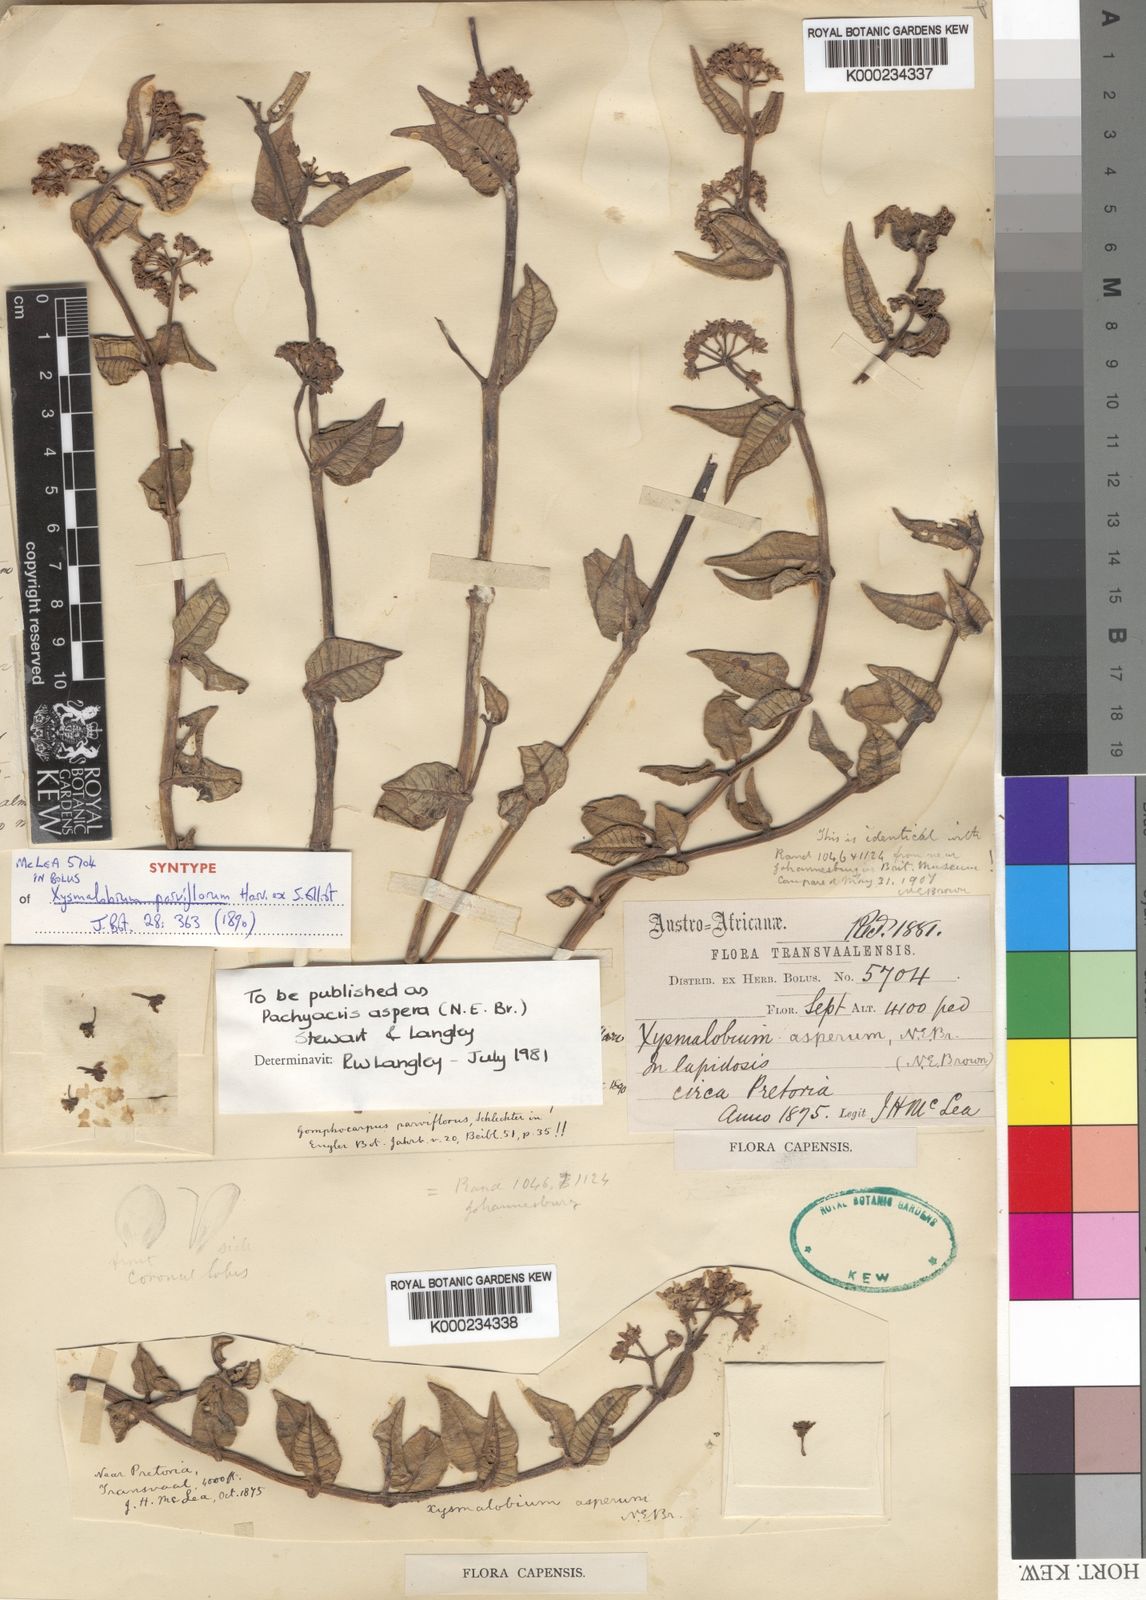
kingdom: Plantae
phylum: Tracheophyta
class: Magnoliopsida
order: Gentianales
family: Apocynaceae
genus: Xysmalobium
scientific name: Xysmalobium asperum
